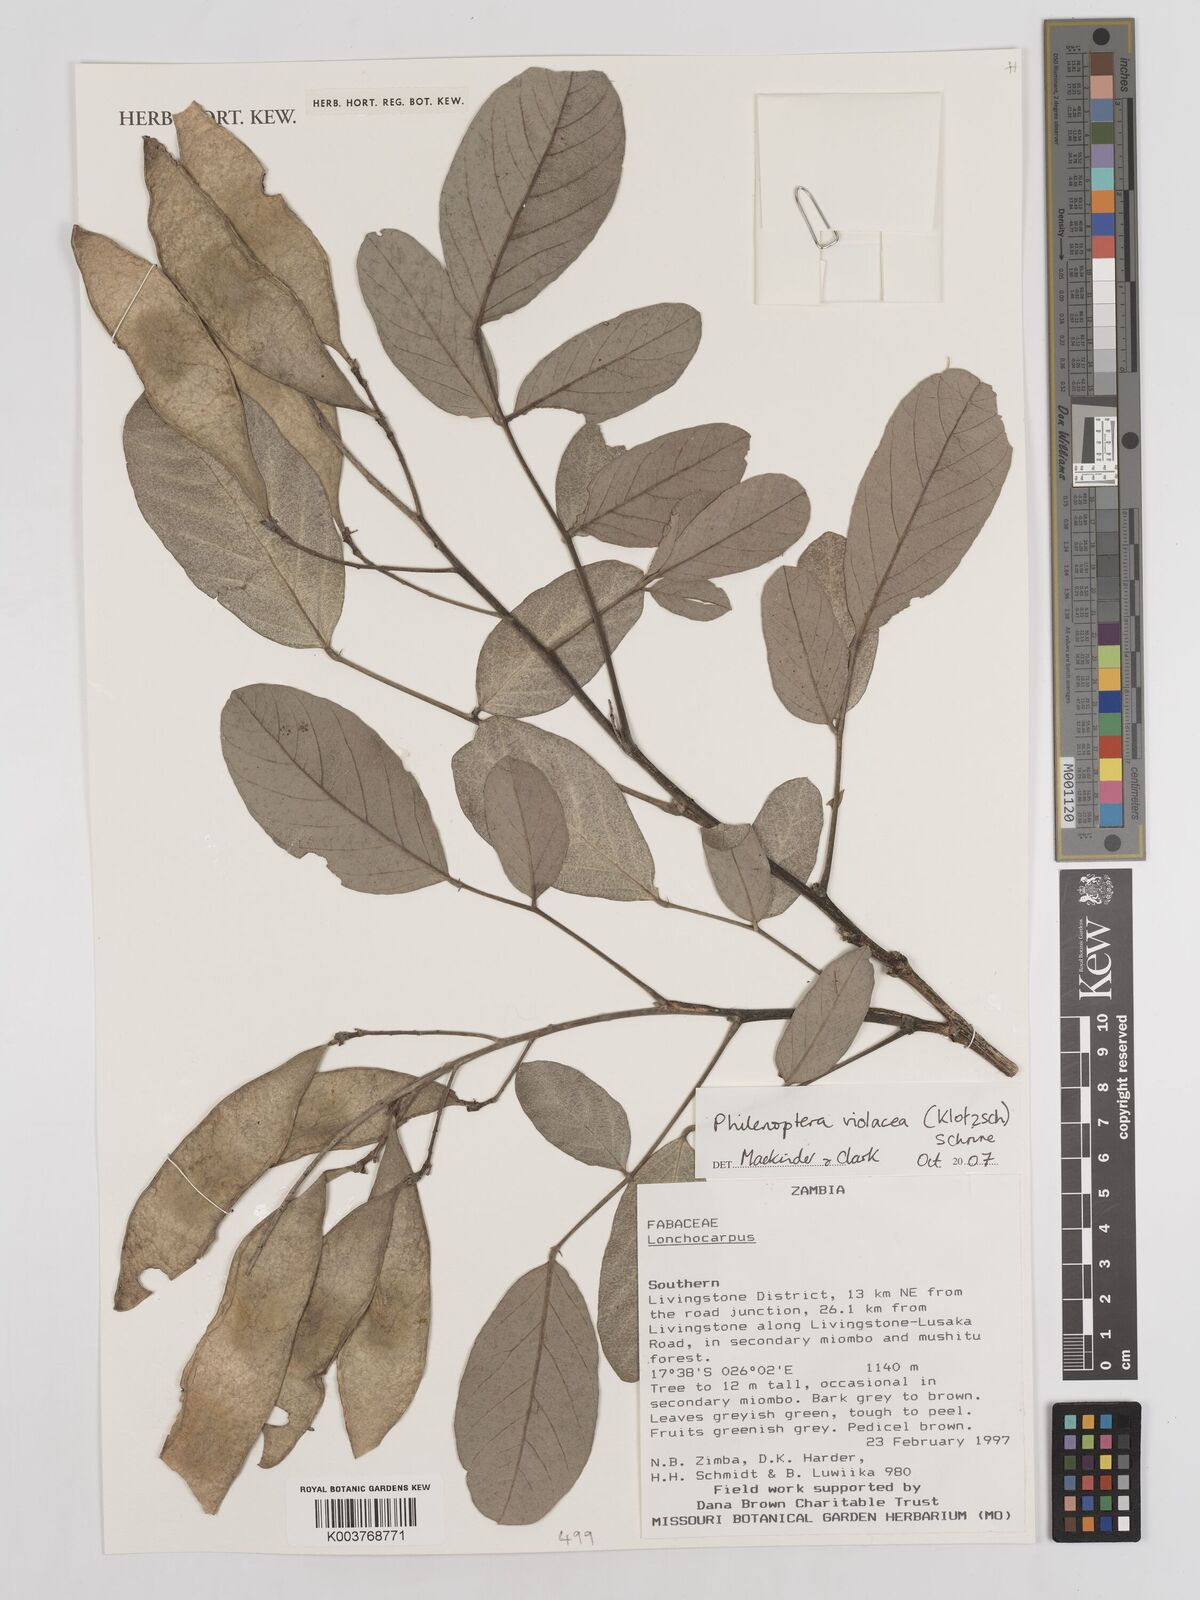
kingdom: Plantae
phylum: Tracheophyta
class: Magnoliopsida
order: Fabales
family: Fabaceae
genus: Philenoptera
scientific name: Philenoptera violacea
